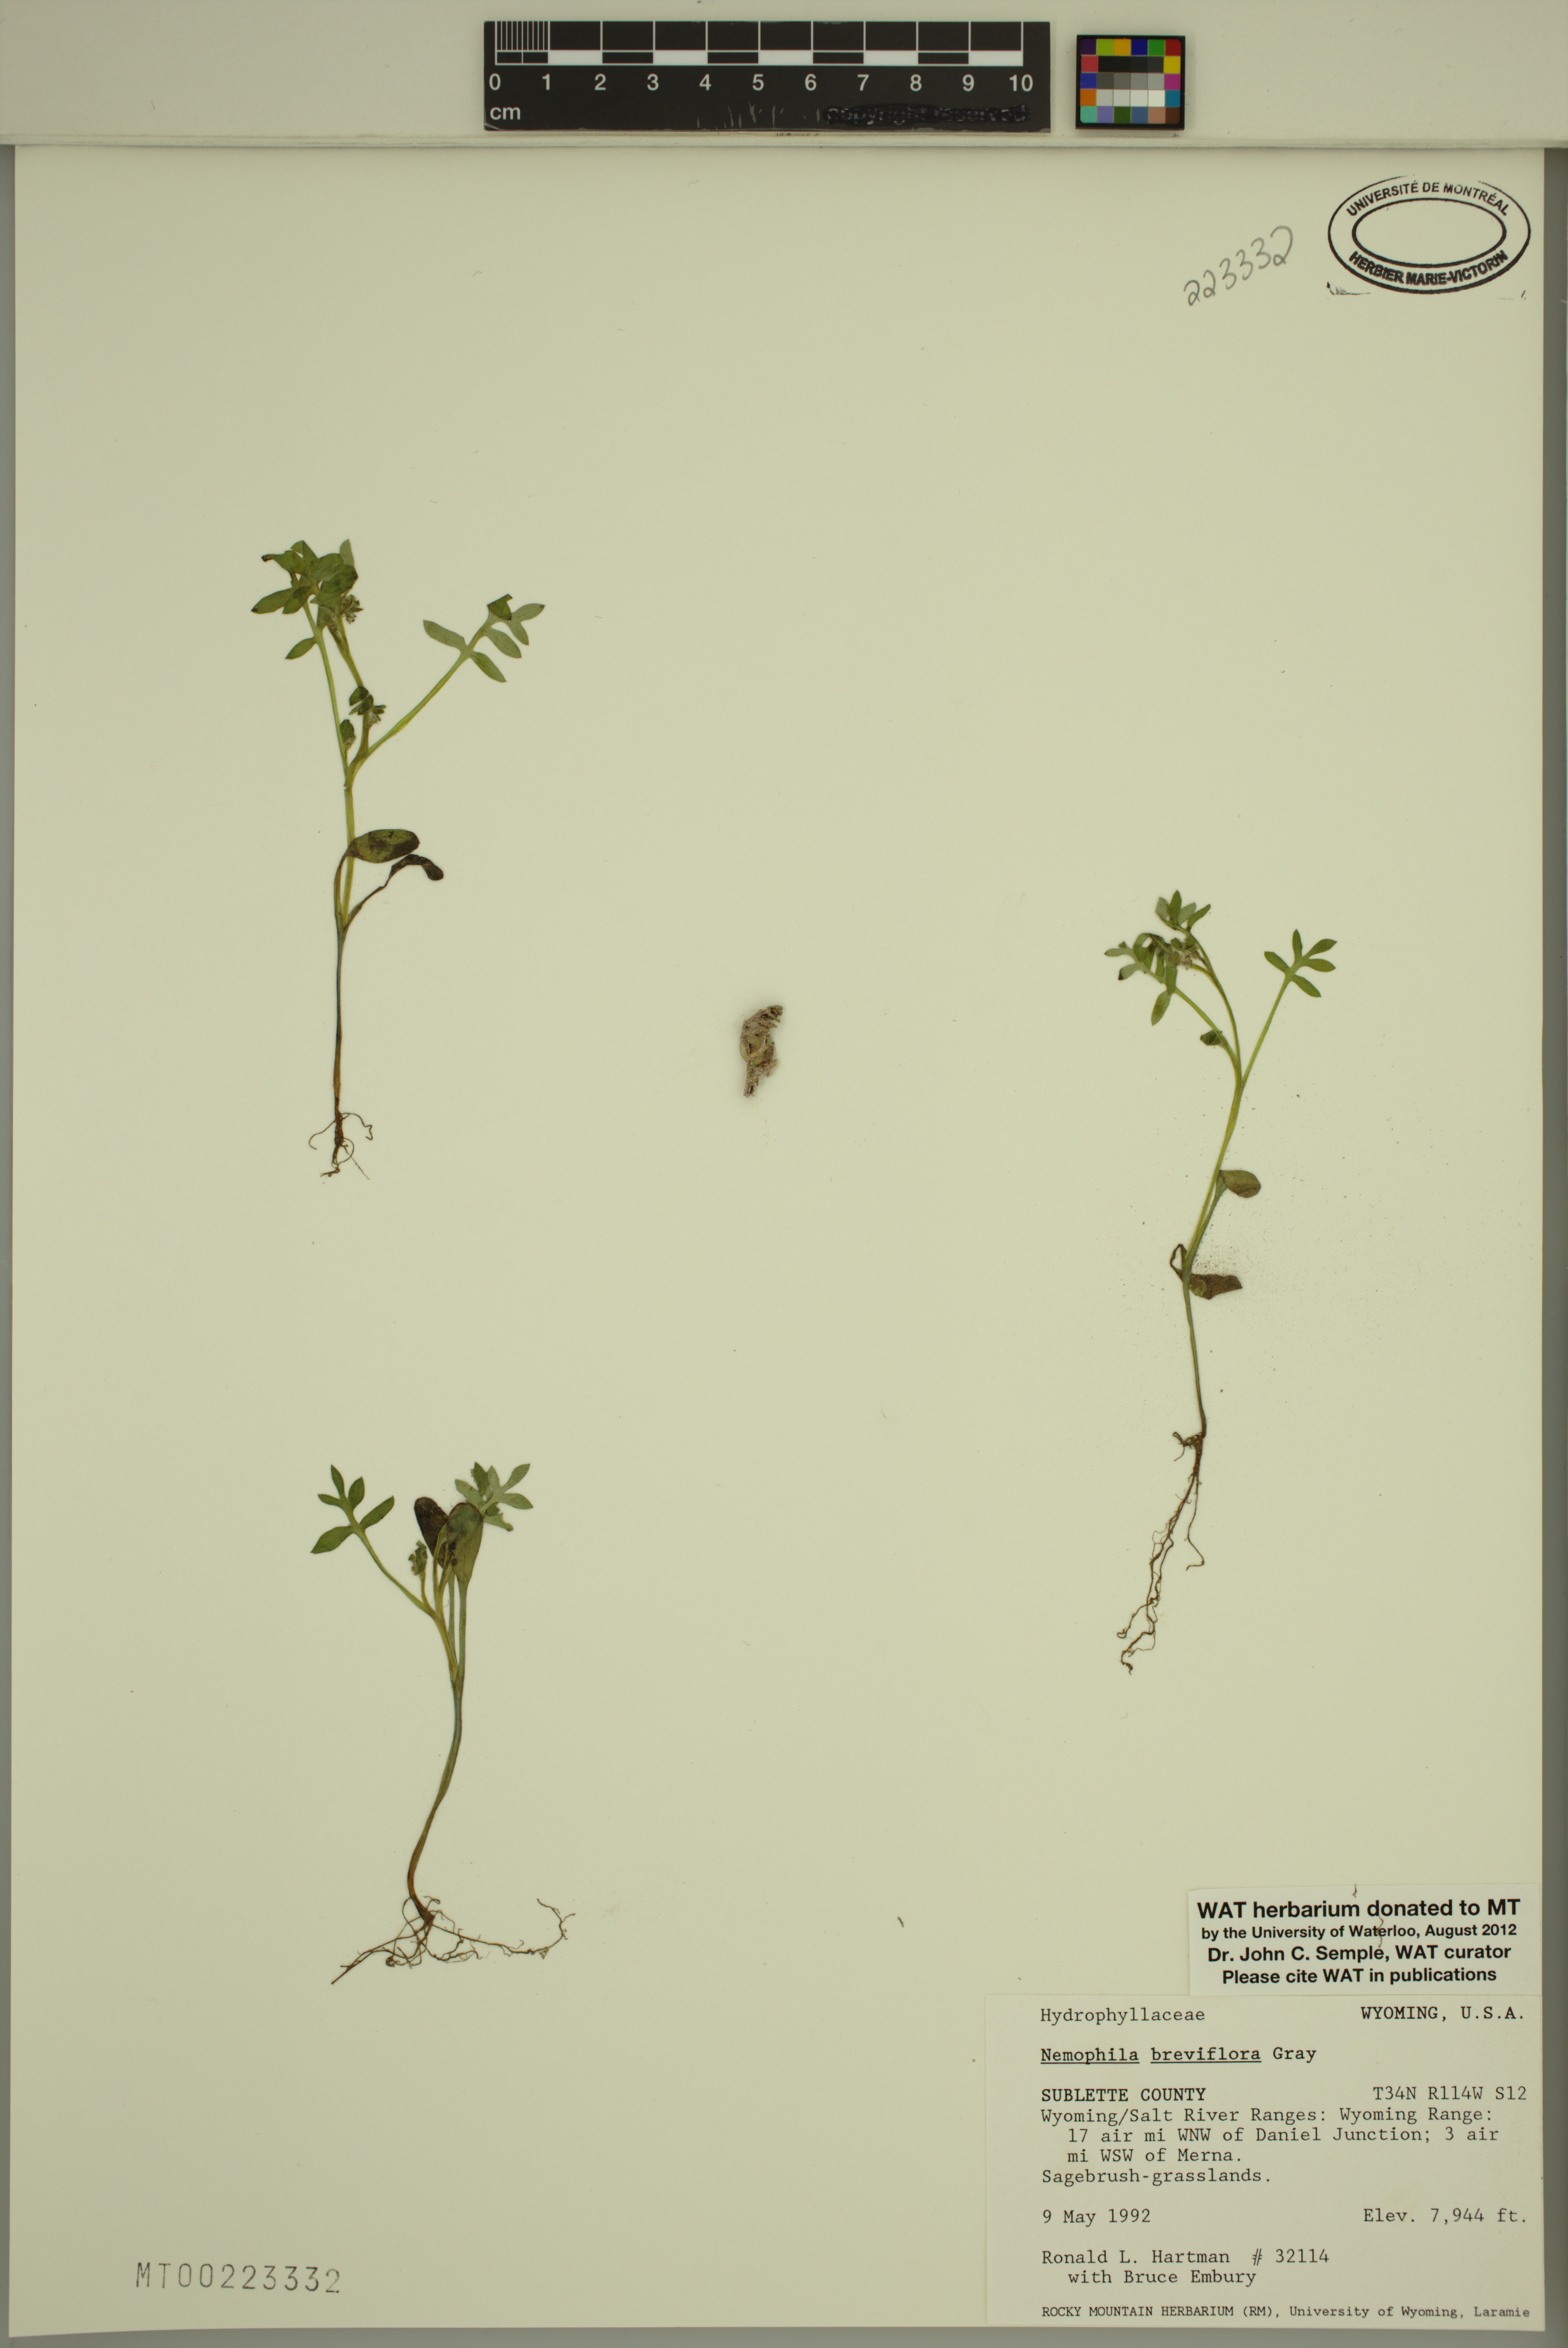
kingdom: Plantae
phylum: Tracheophyta
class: Magnoliopsida
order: Boraginales
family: Hydrophyllaceae
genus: Nemophila
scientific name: Nemophila breviflora
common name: Great basin baby-blue-eyes
